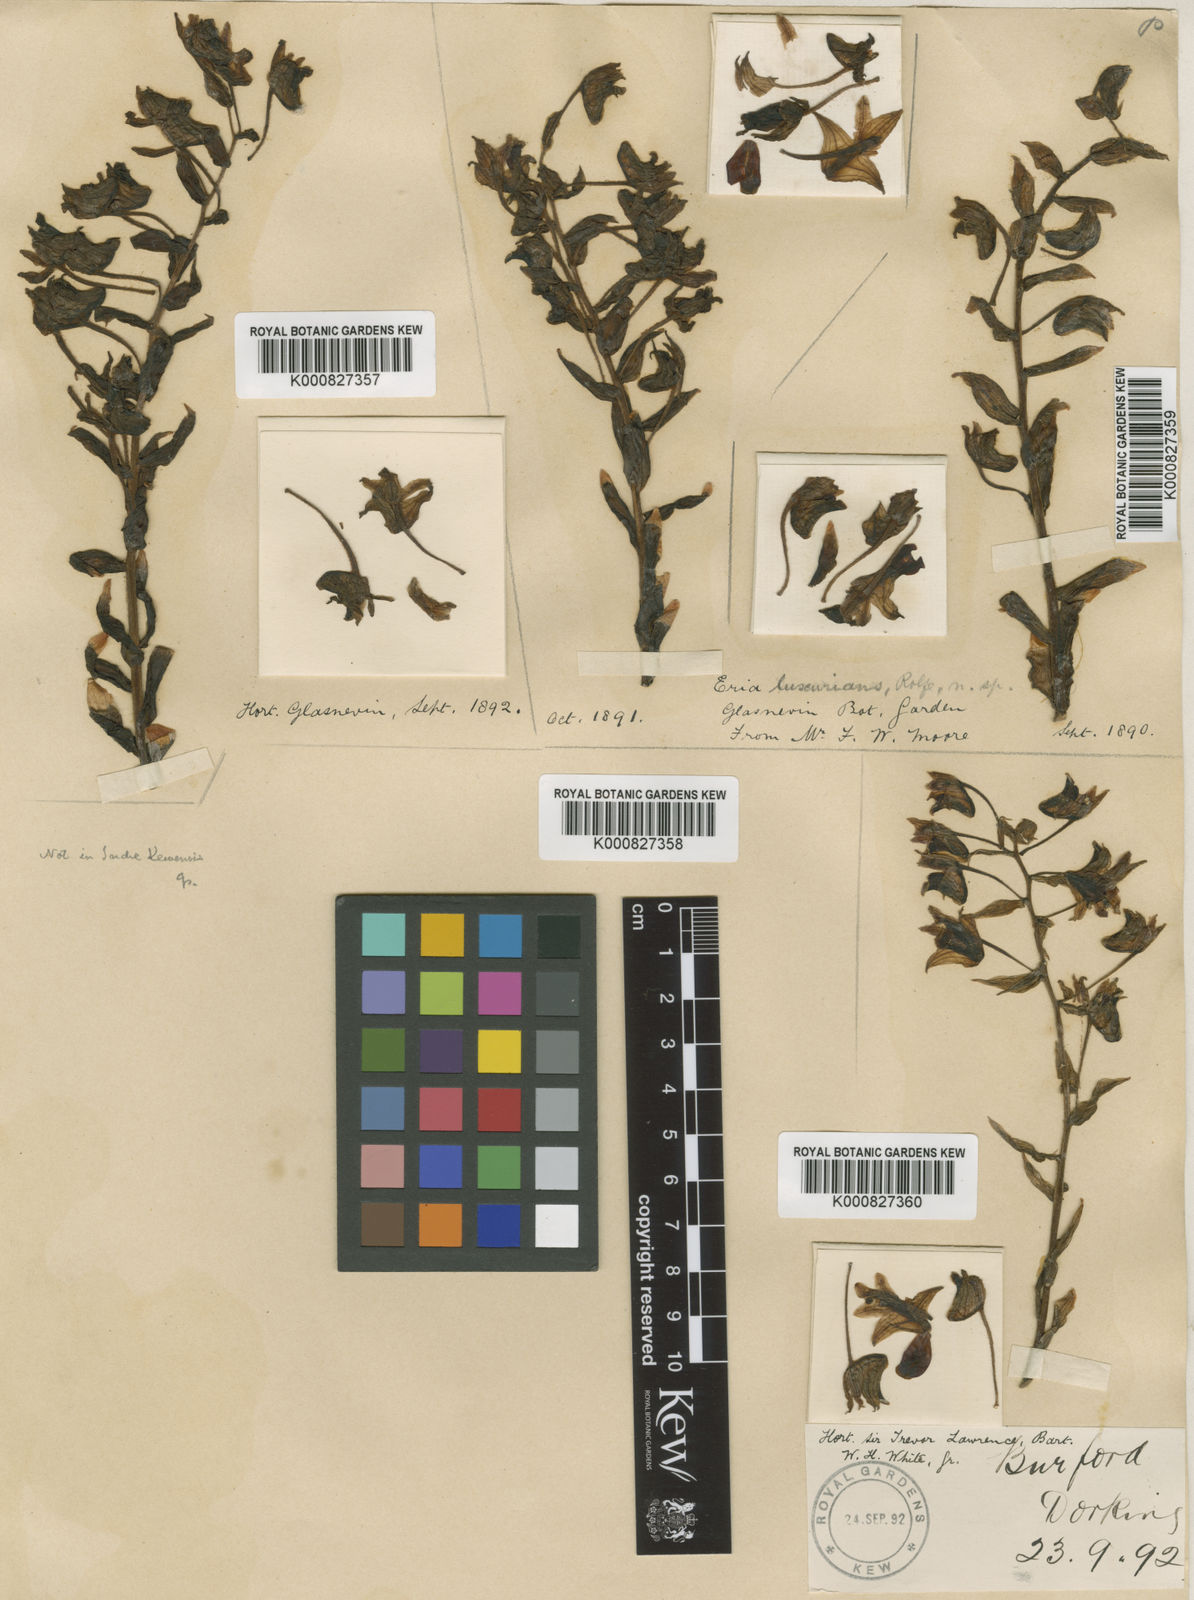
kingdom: Plantae
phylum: Tracheophyta
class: Liliopsida
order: Asparagales
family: Orchidaceae
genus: Pinalia
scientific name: Pinalia flavescens
